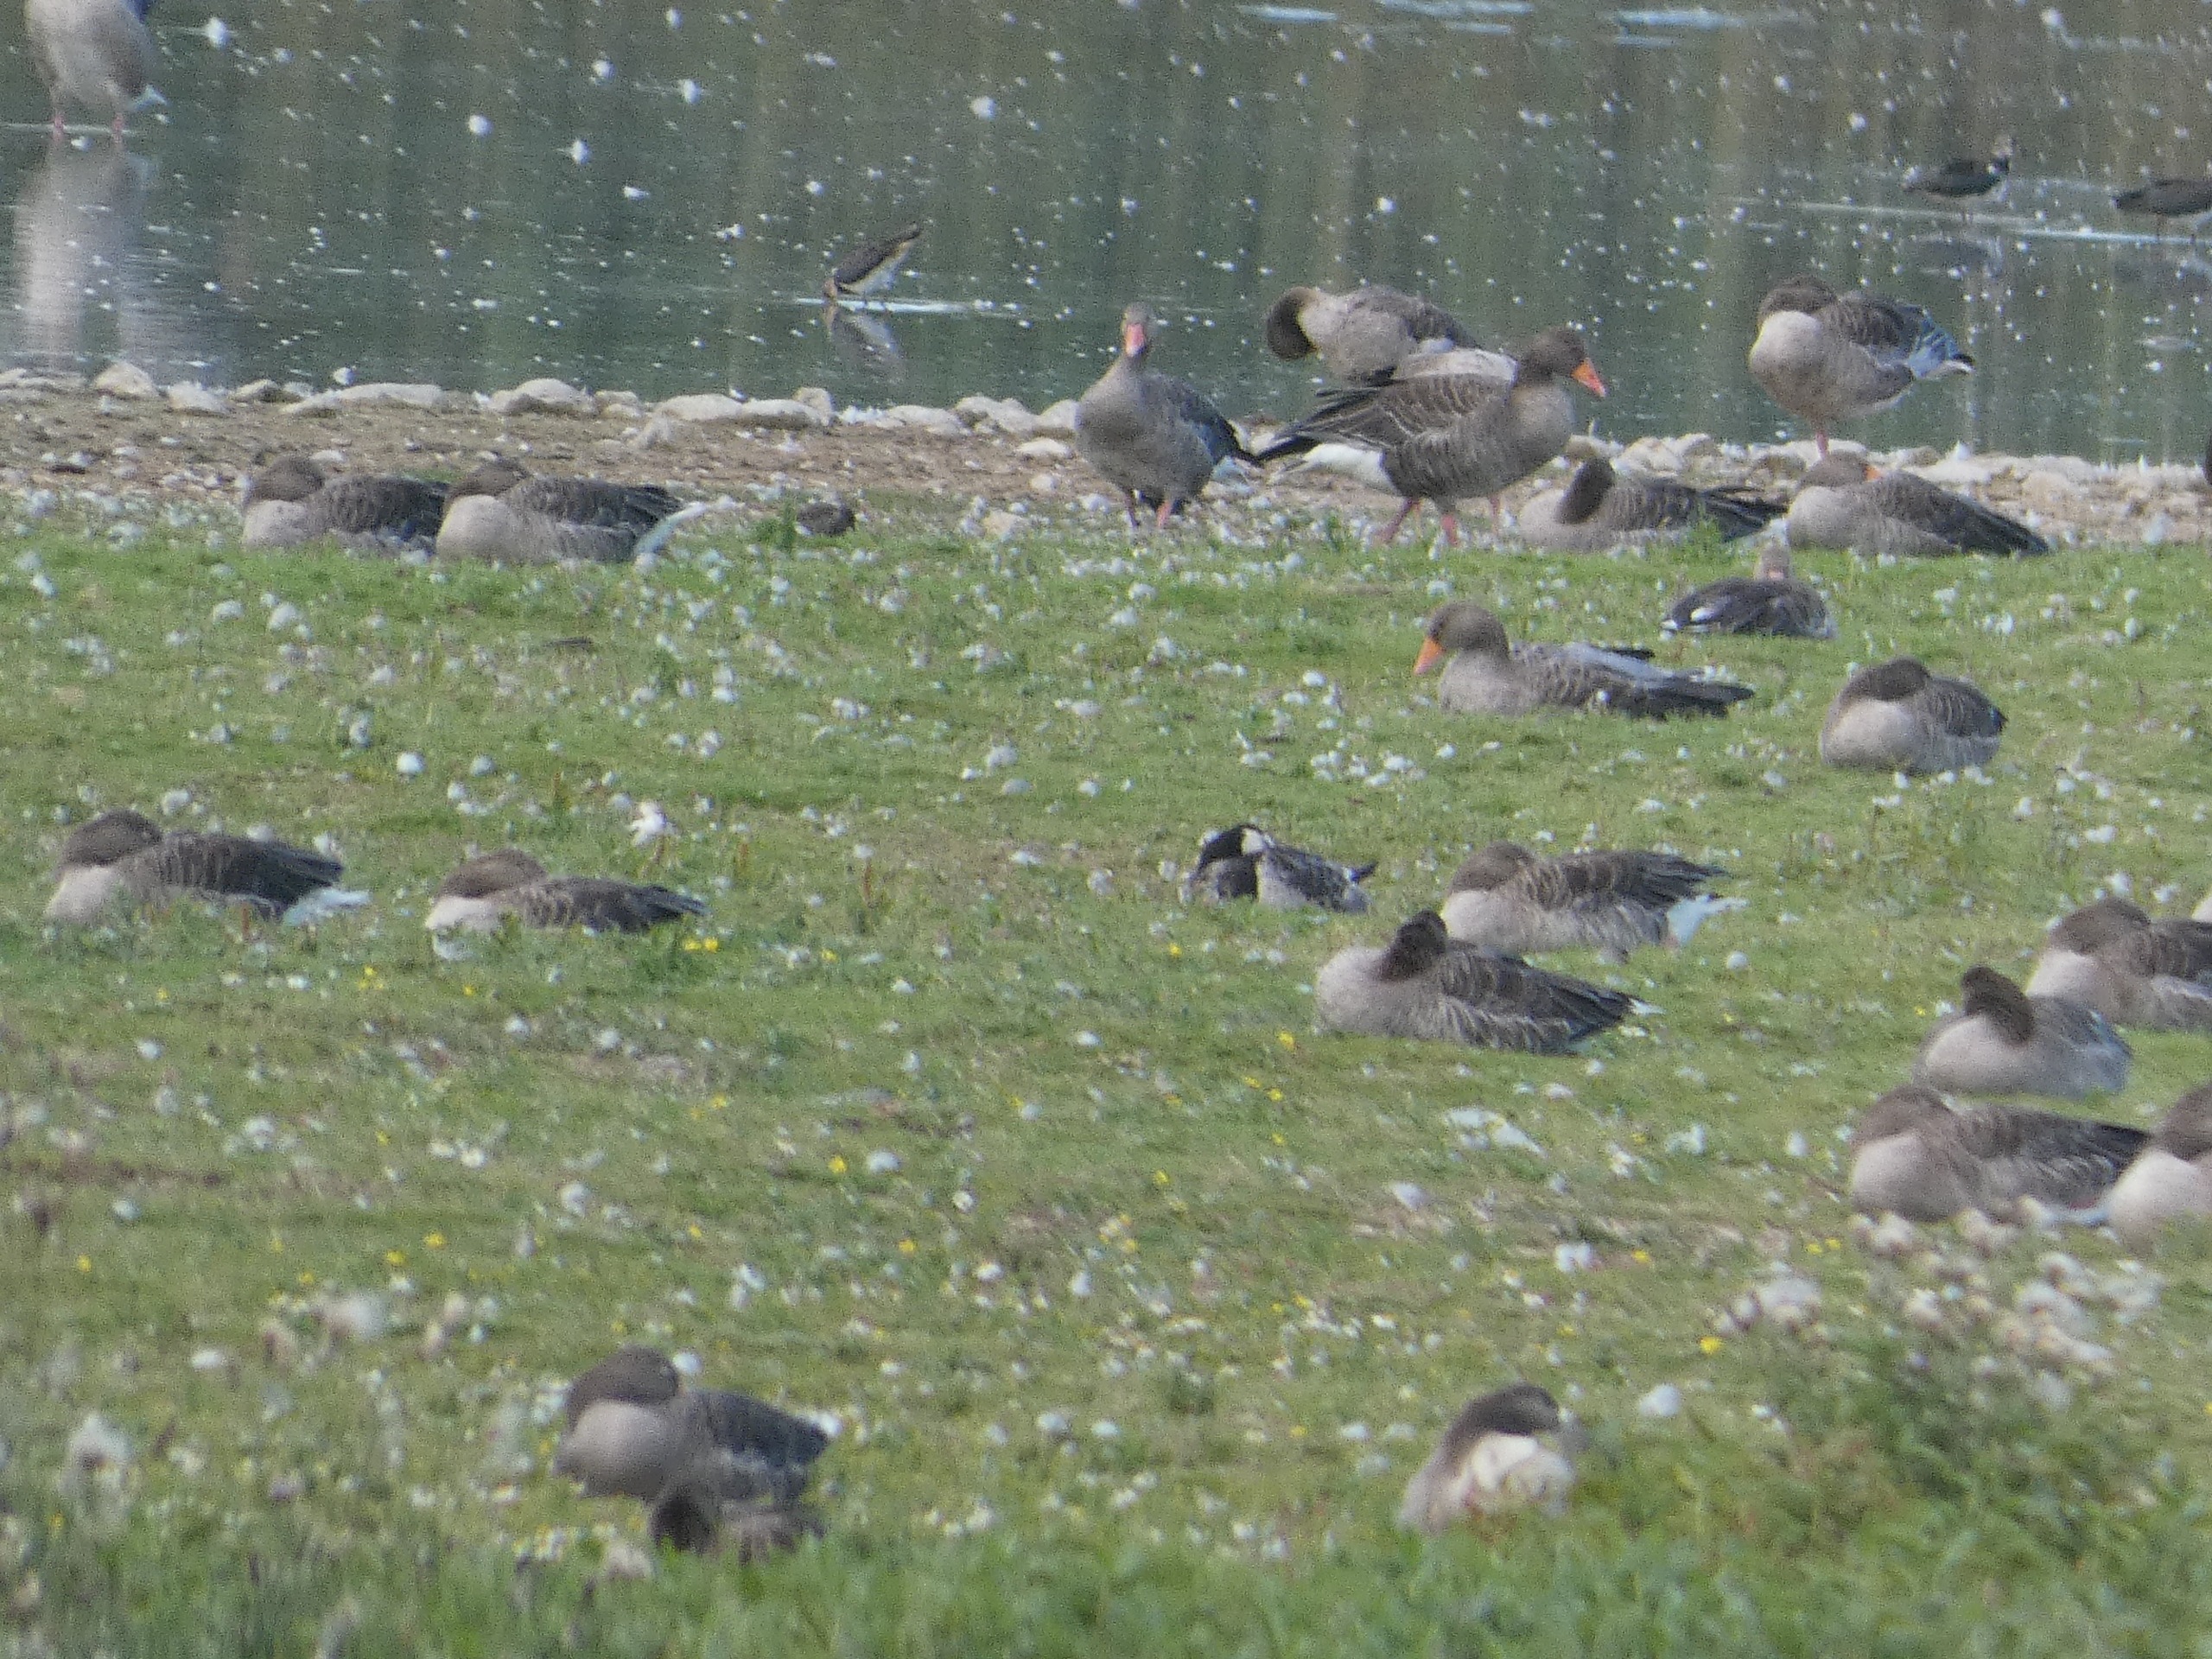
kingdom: Animalia
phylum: Chordata
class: Aves
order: Anseriformes
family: Anatidae
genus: Branta
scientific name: Branta leucopsis
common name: Bramgås
